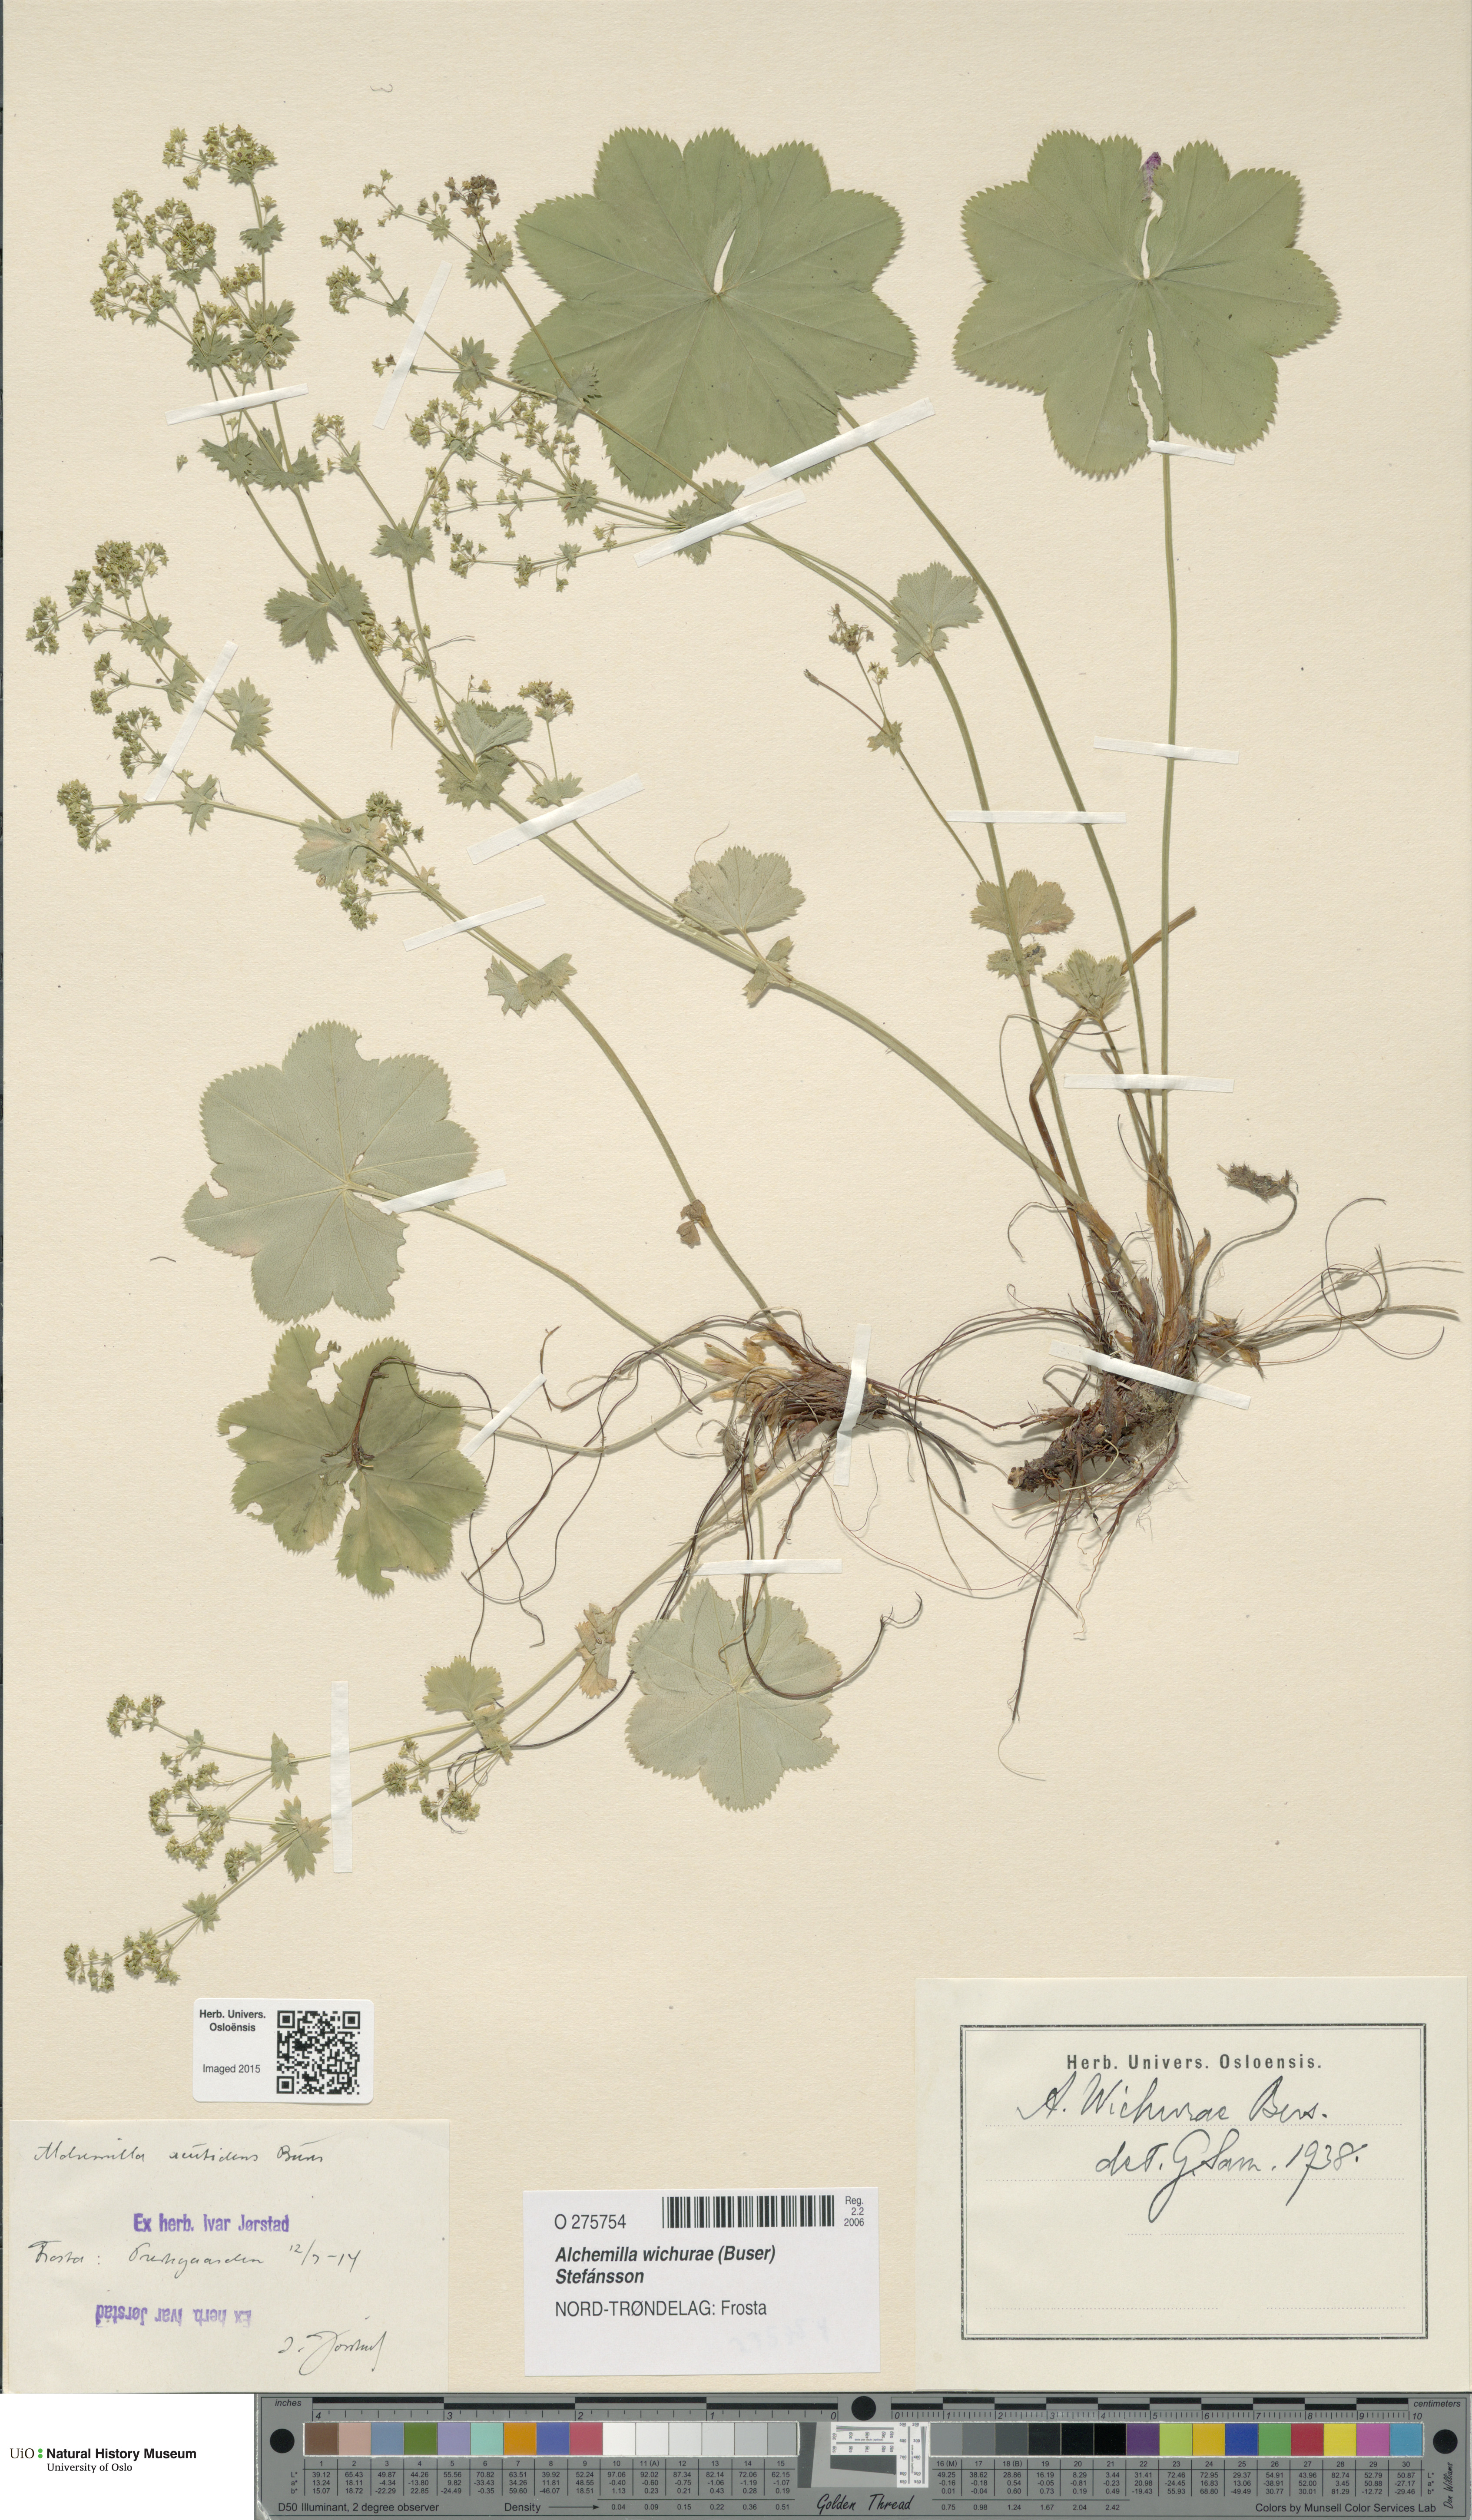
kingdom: Plantae
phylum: Tracheophyta
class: Magnoliopsida
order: Rosales
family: Rosaceae
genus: Alchemilla
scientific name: Alchemilla wichurae
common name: Rock lady's mantle
